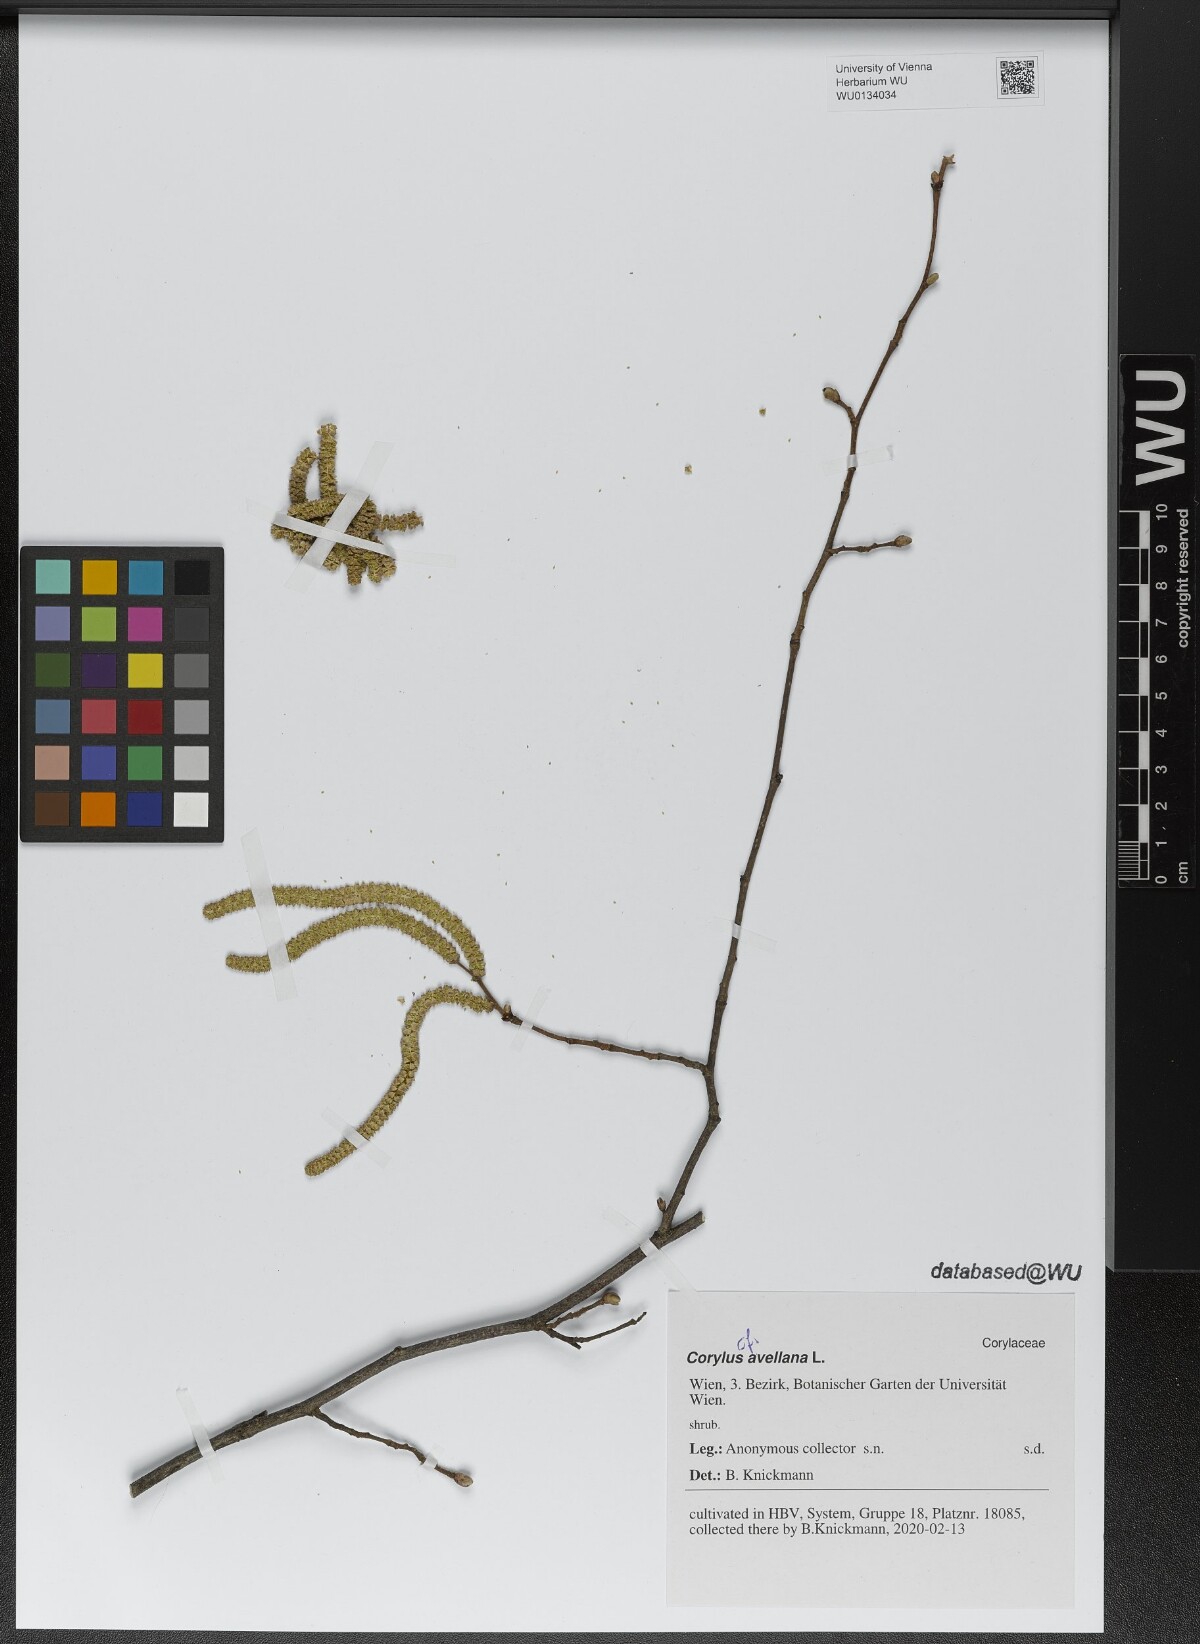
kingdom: Plantae
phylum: Tracheophyta
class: Magnoliopsida
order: Fagales
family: Betulaceae
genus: Corylus
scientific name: Corylus avellana
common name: European hazel
